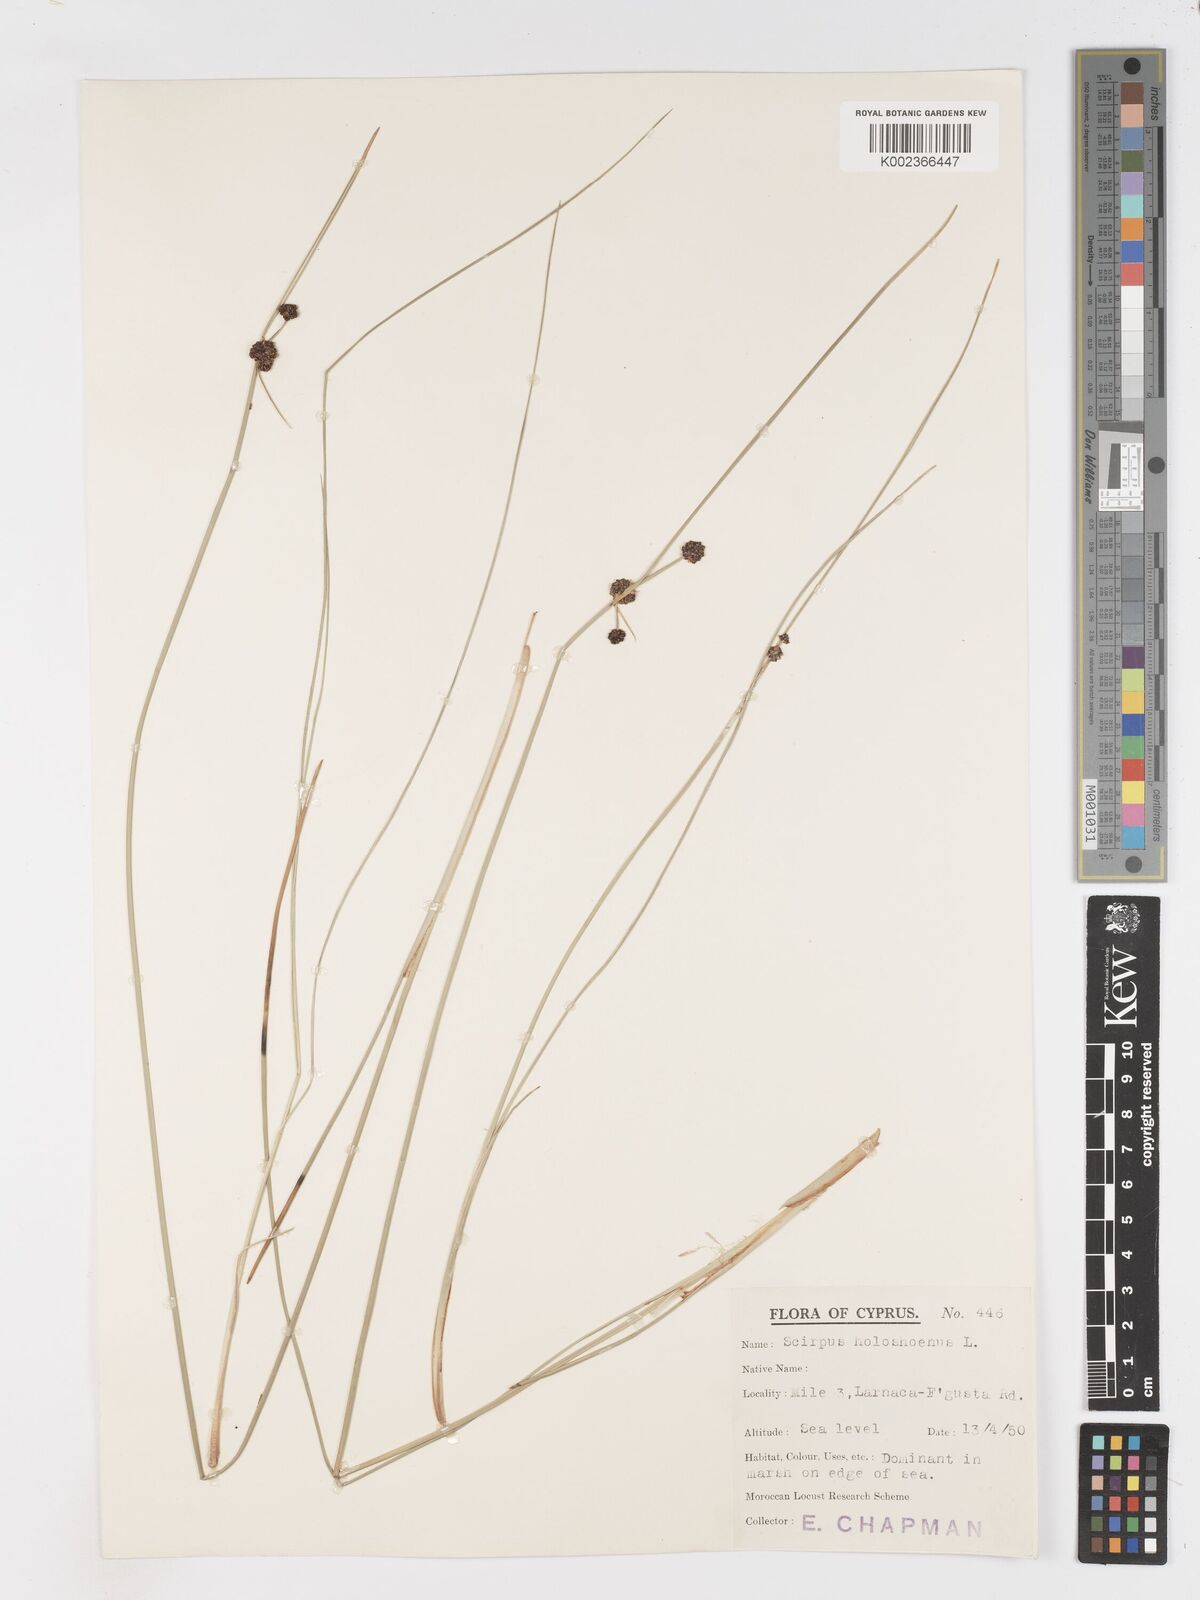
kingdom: Plantae
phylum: Tracheophyta
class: Liliopsida
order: Poales
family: Cyperaceae
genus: Scirpoides
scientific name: Scirpoides holoschoenus
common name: Round-headed club-rush
